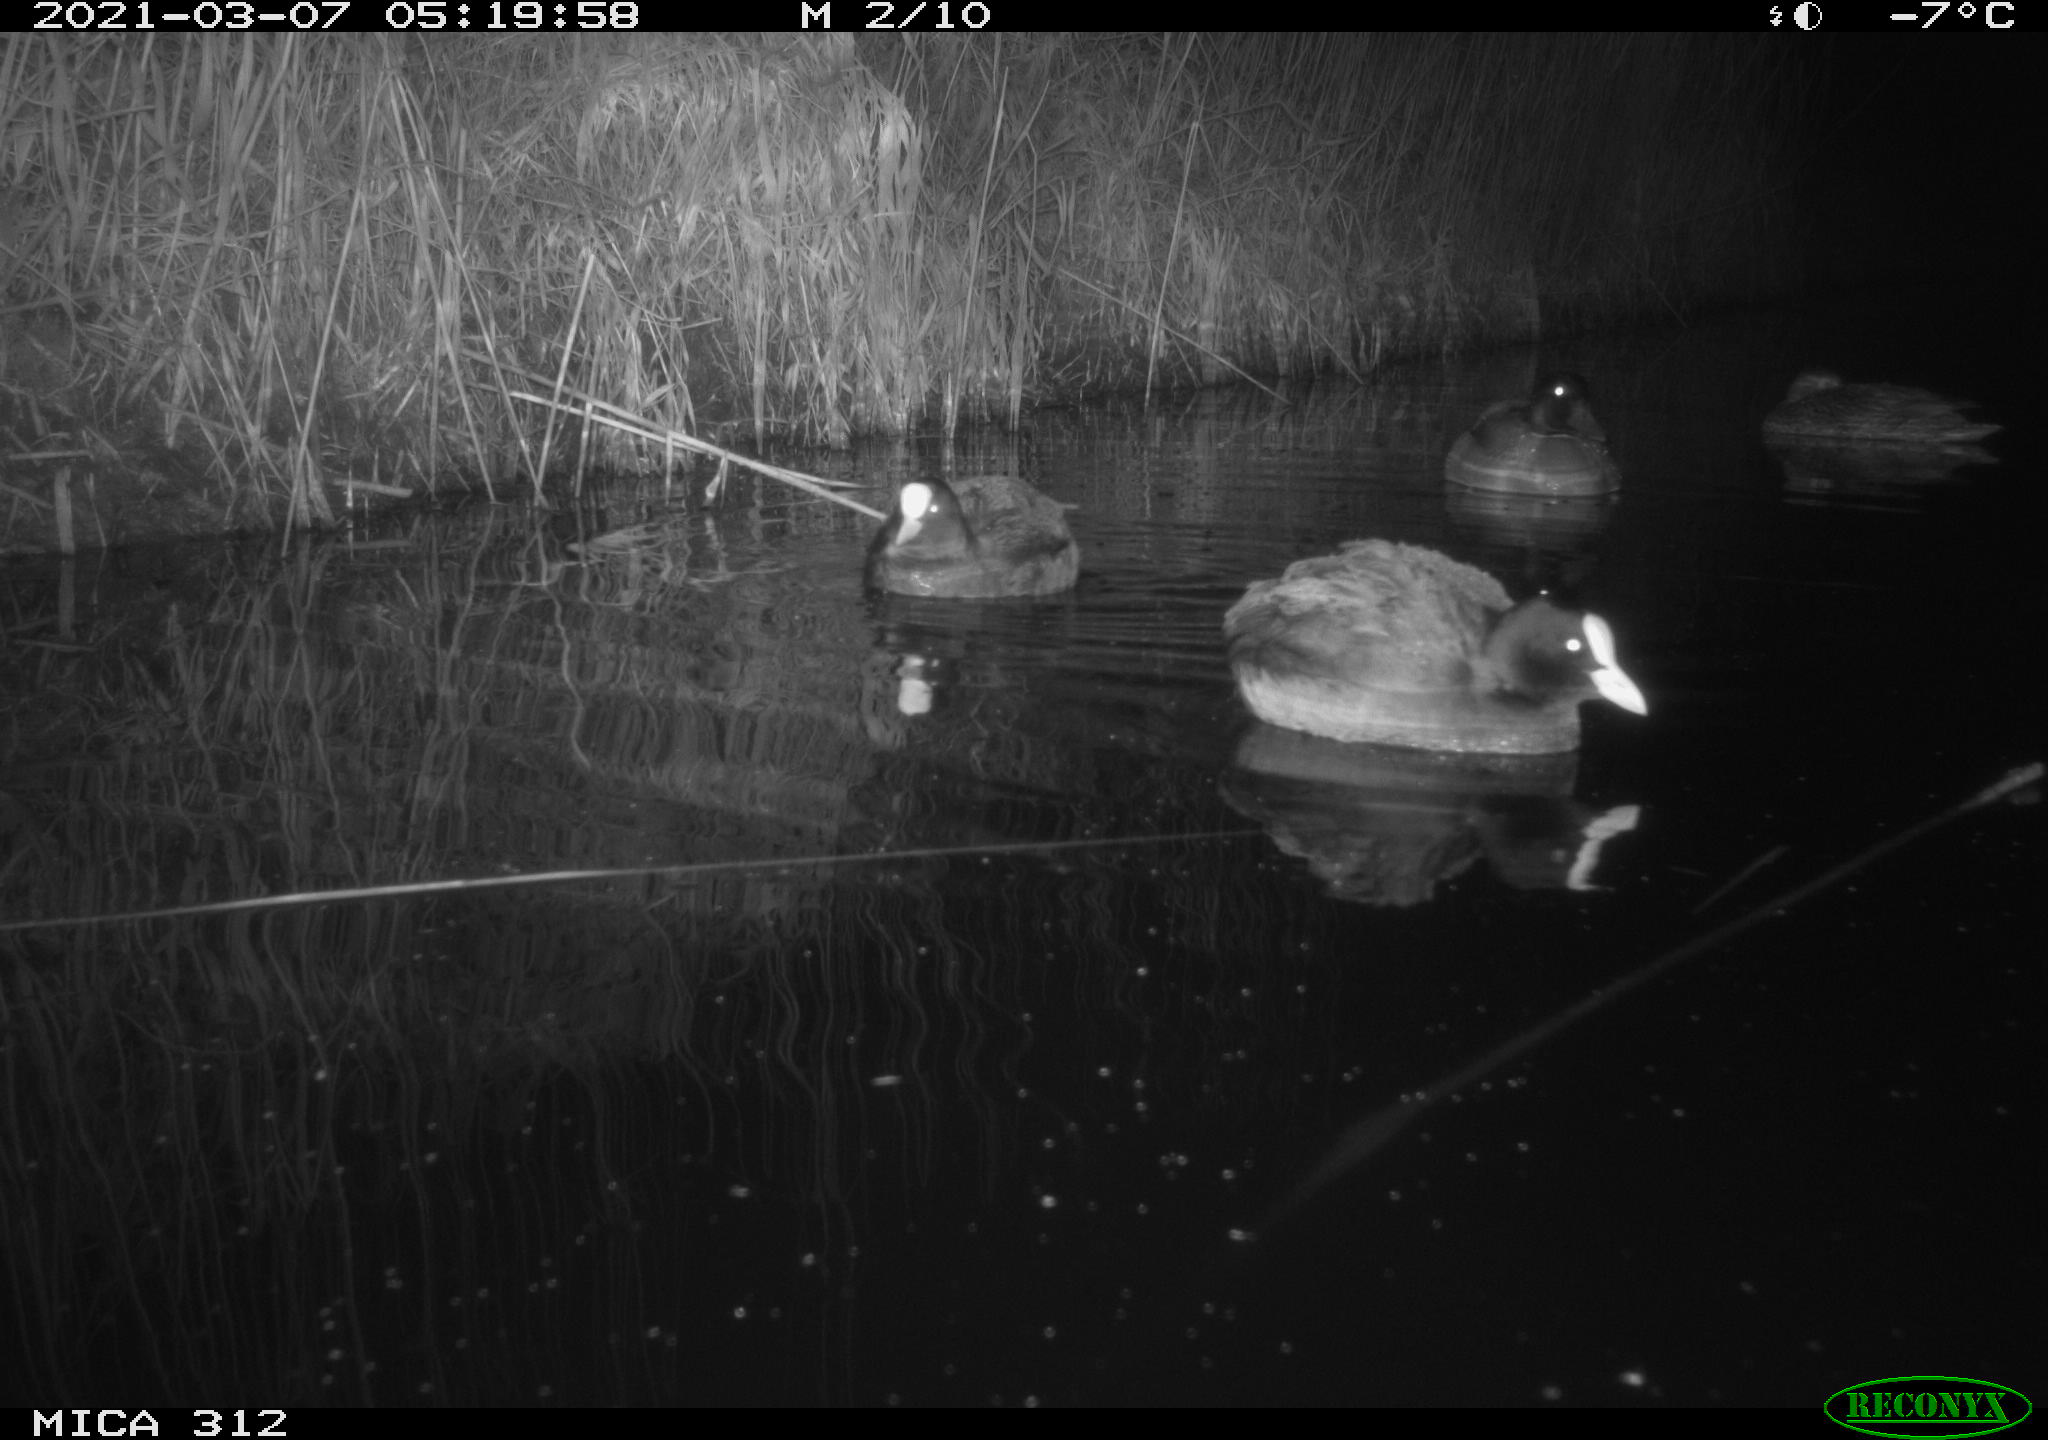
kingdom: Animalia
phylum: Chordata
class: Aves
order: Gruiformes
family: Rallidae
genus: Fulica
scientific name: Fulica atra
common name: Eurasian coot
